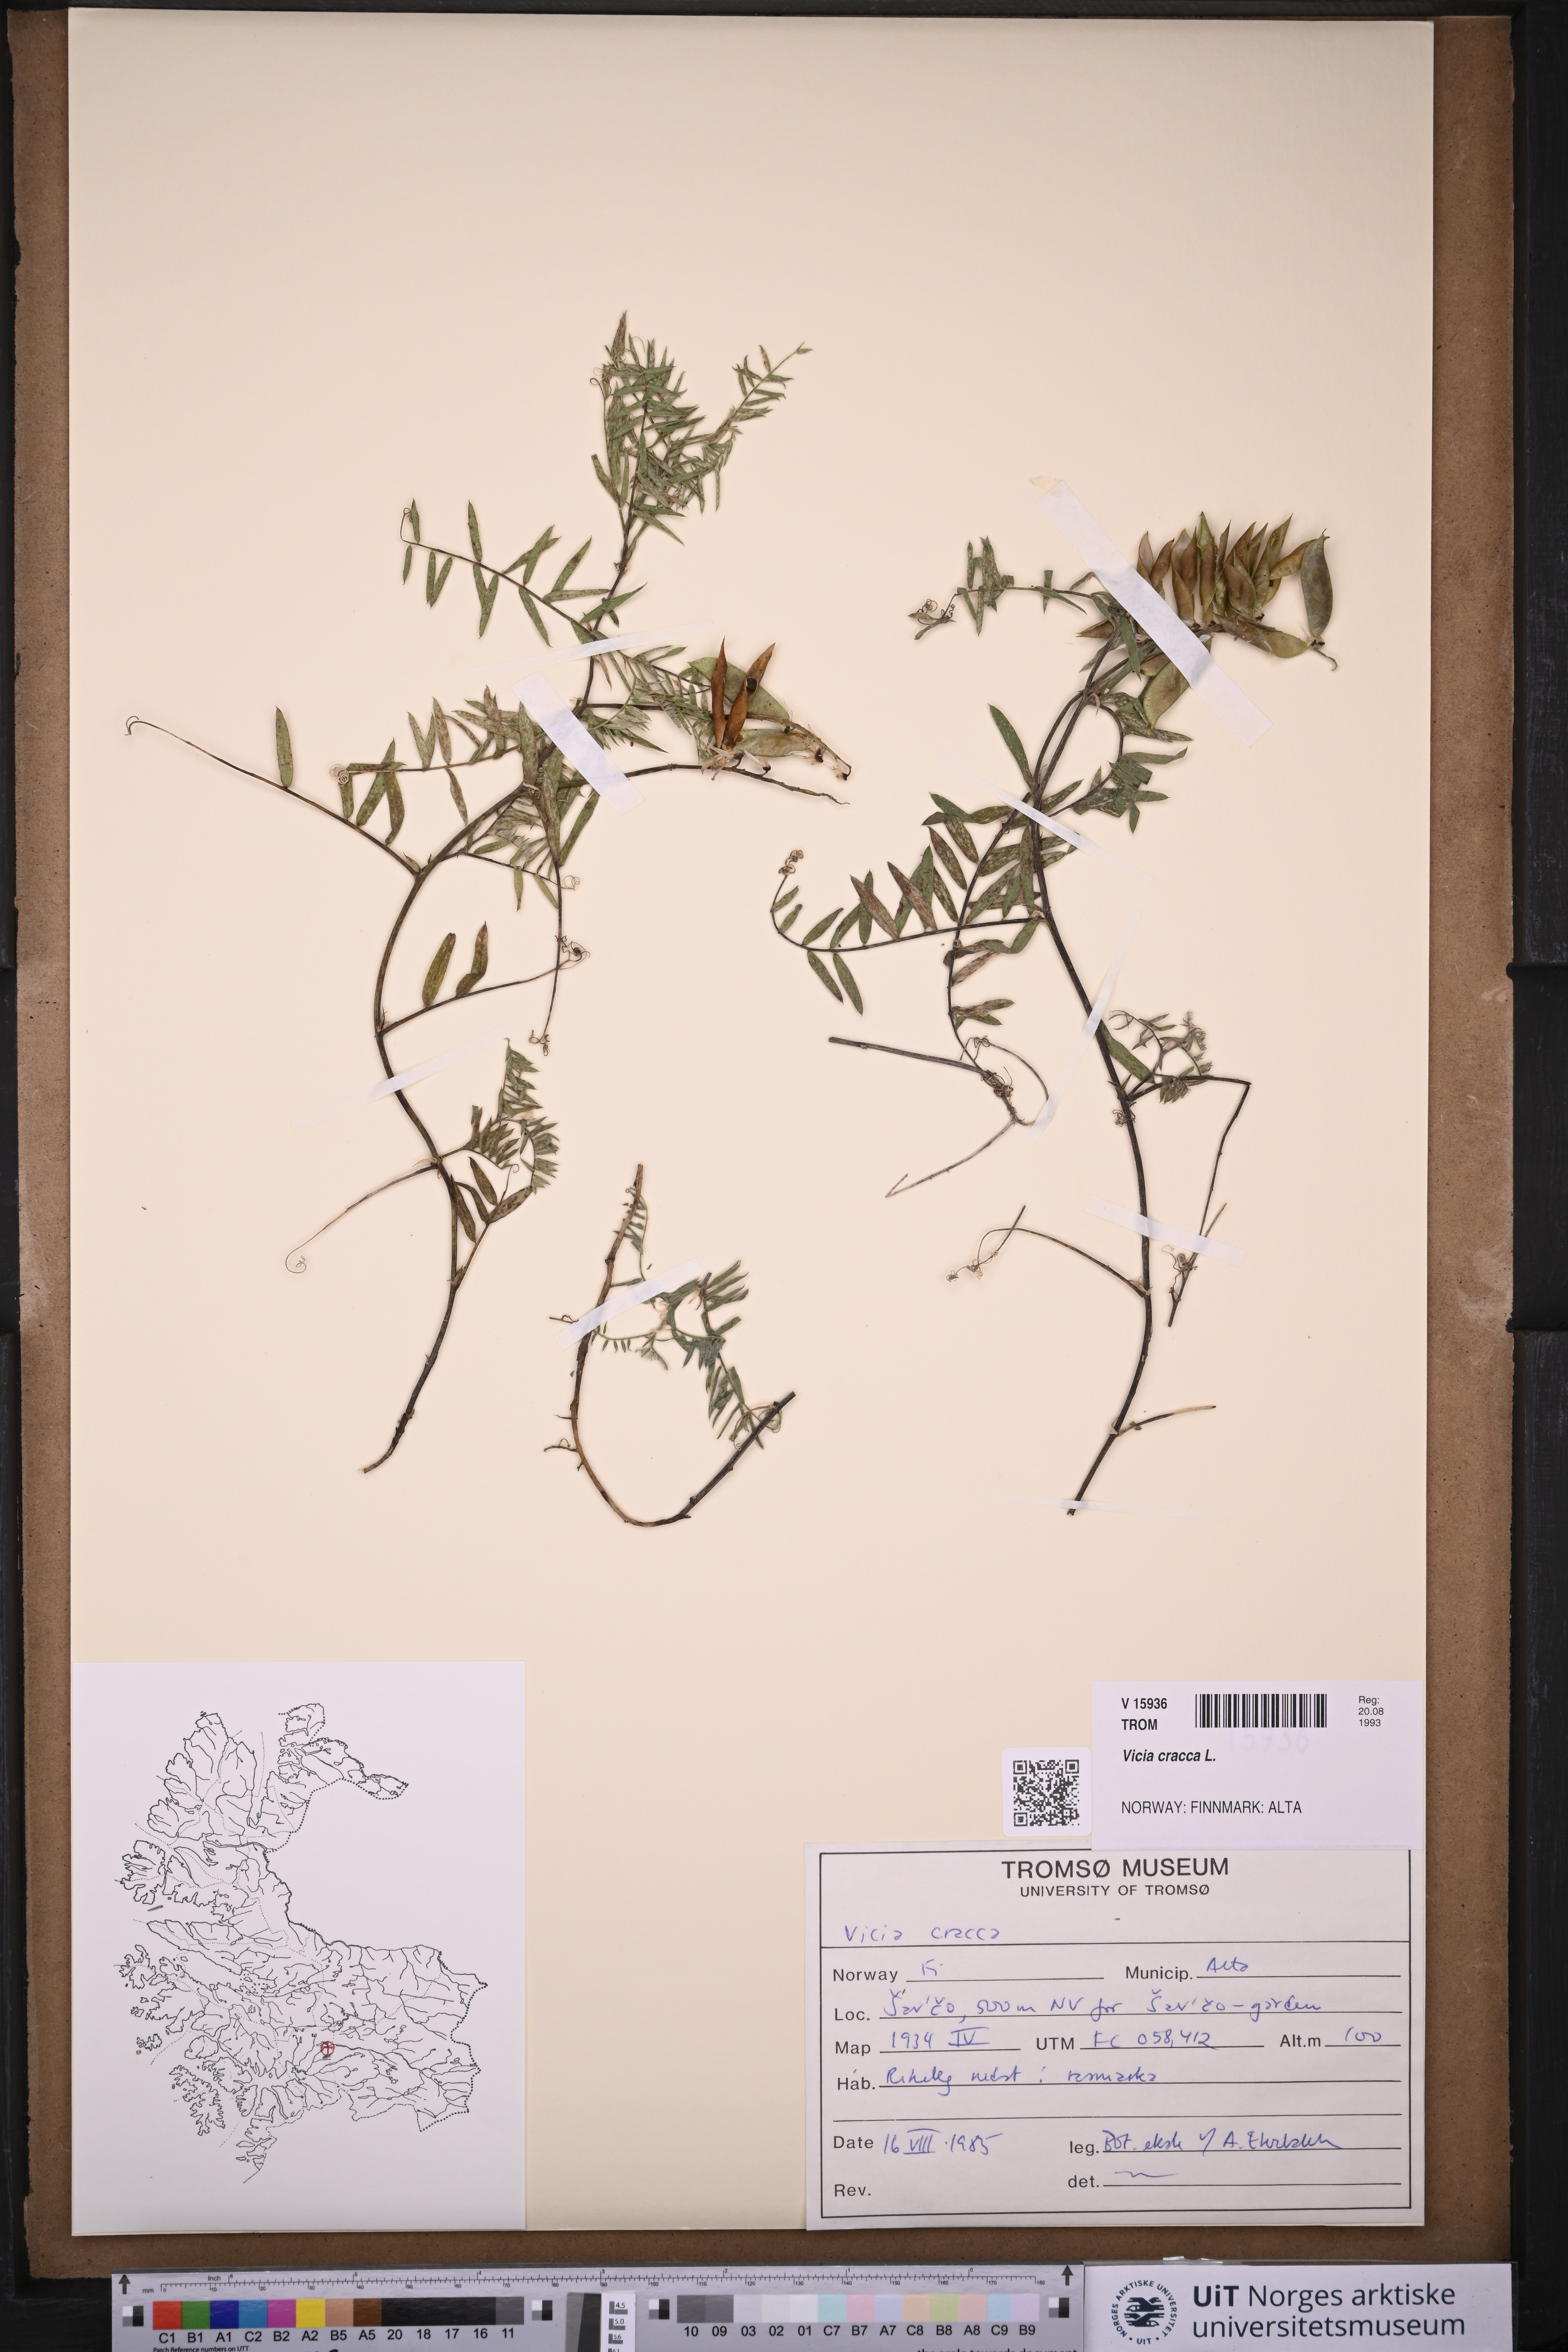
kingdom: Plantae
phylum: Tracheophyta
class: Magnoliopsida
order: Fabales
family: Fabaceae
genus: Vicia
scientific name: Vicia cracca
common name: Bird vetch
